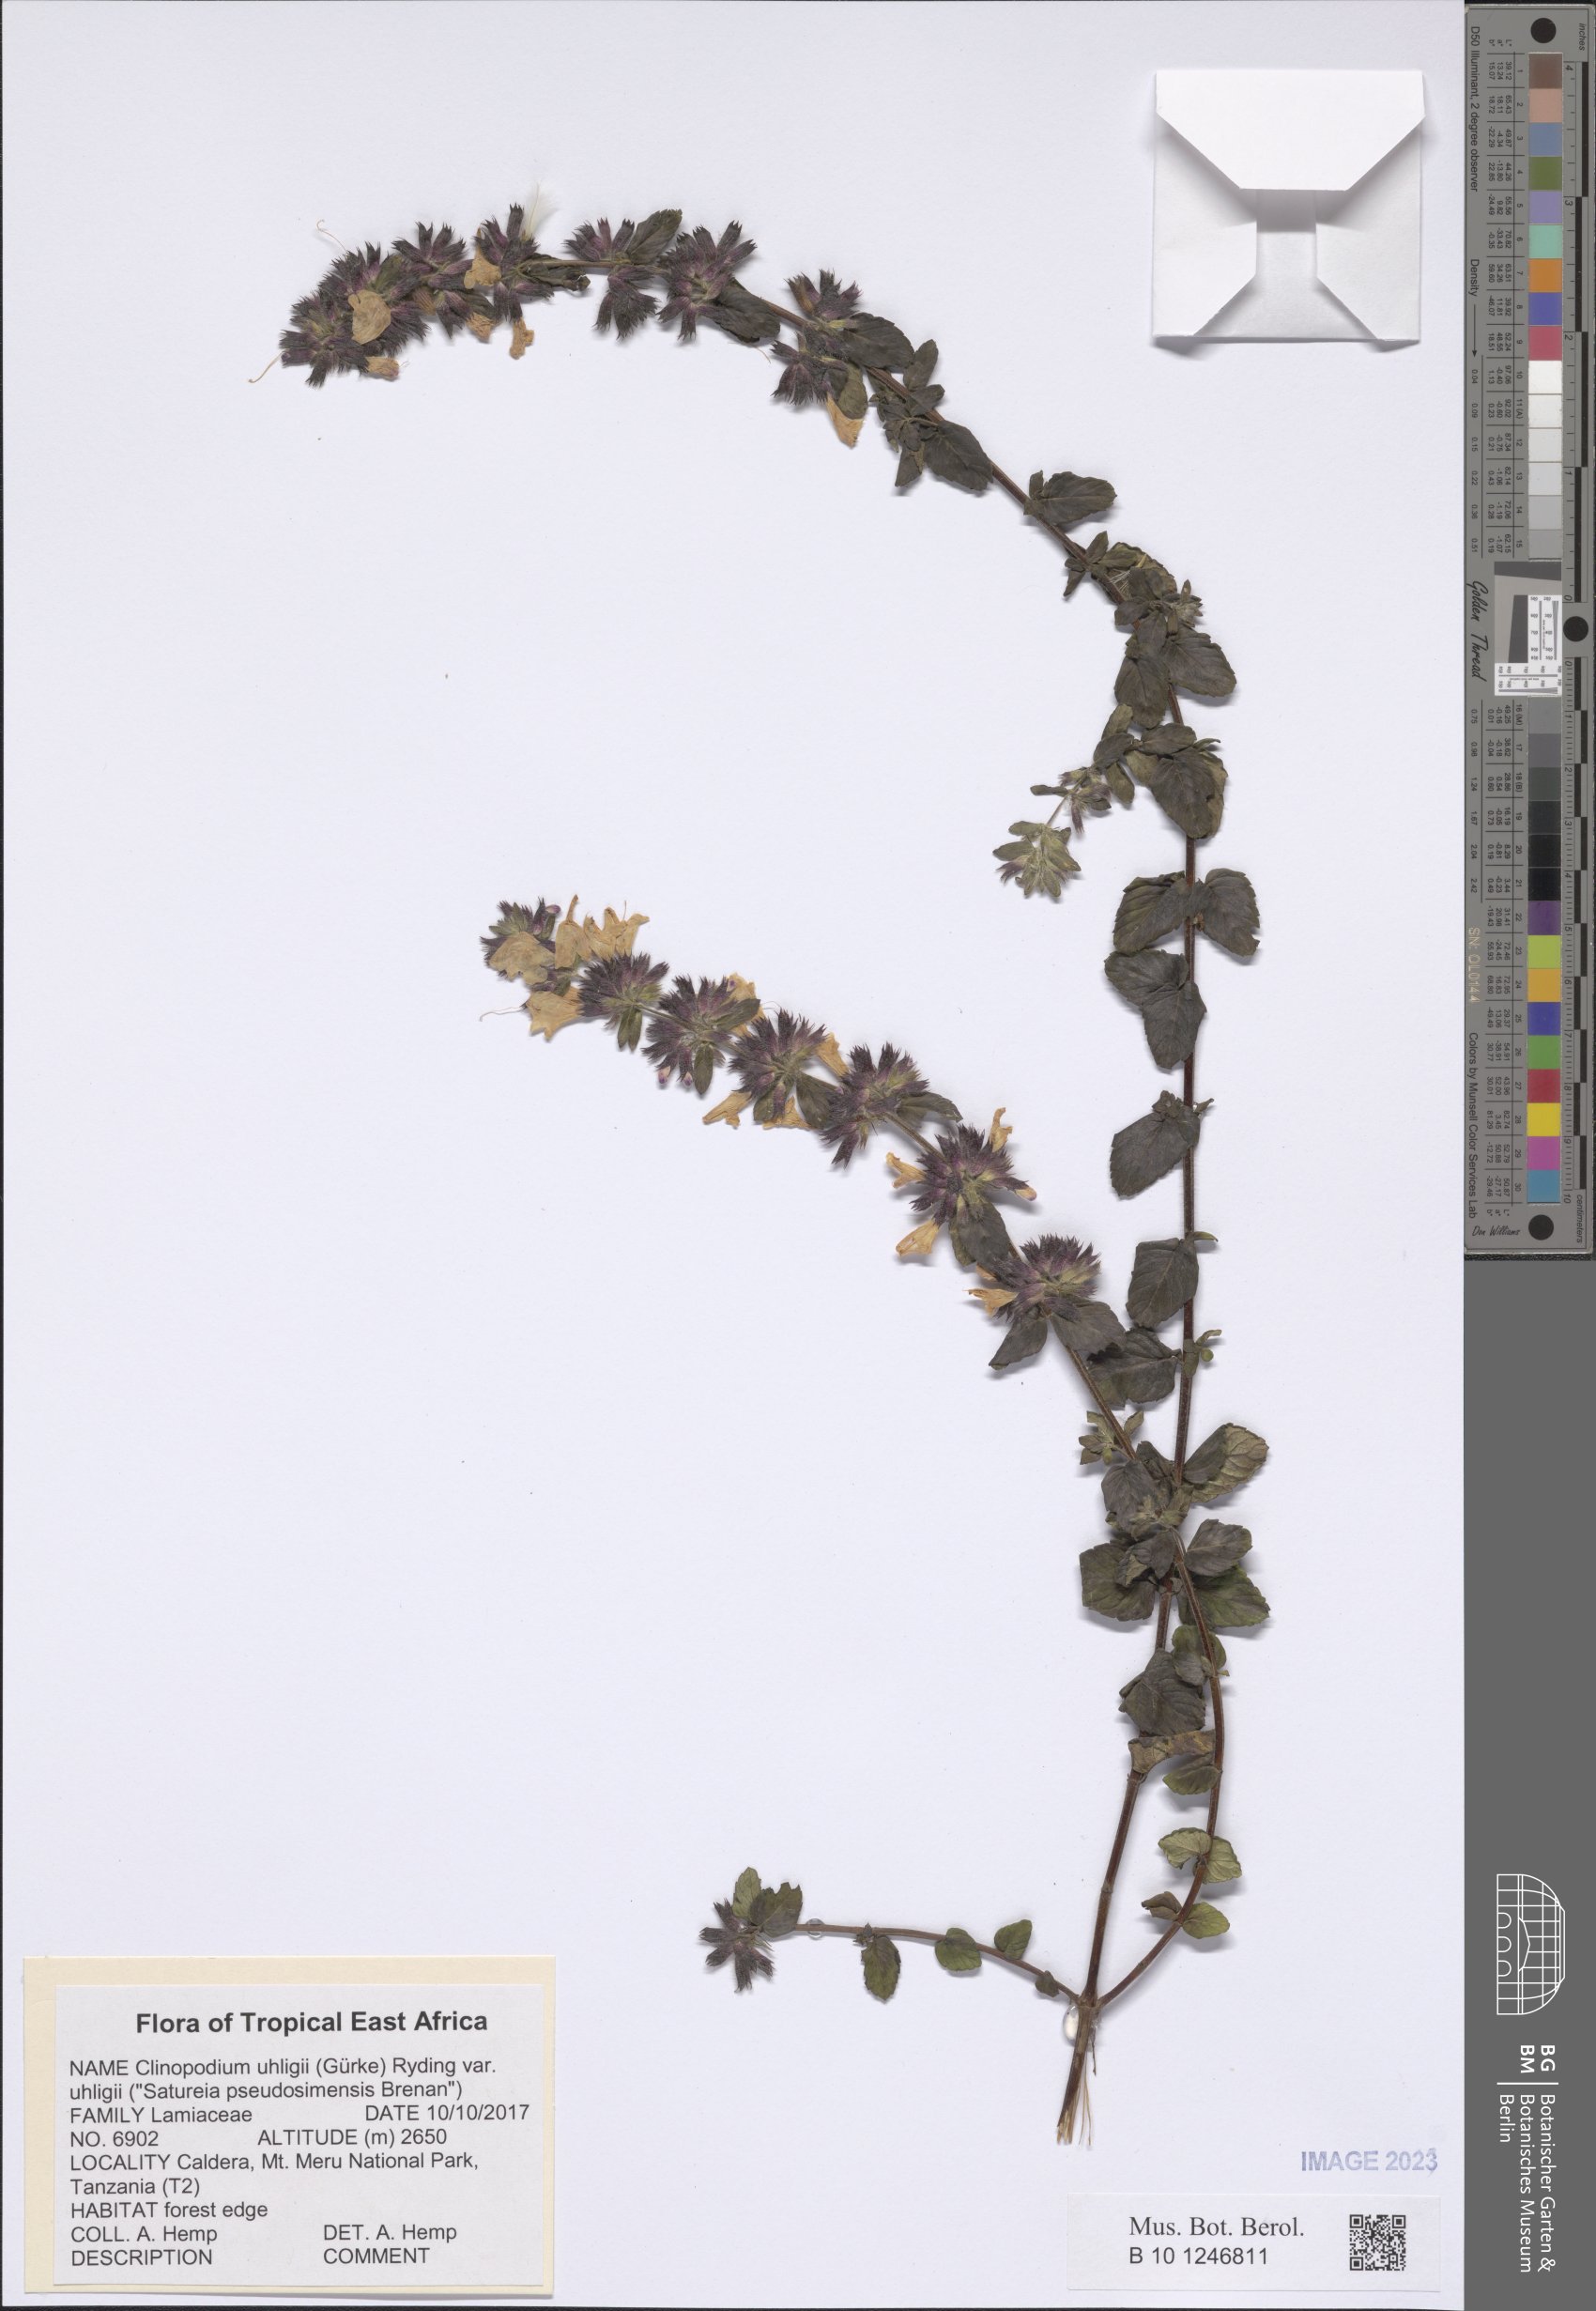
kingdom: Plantae
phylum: Tracheophyta
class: Magnoliopsida
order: Lamiales
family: Lamiaceae
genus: Clinopodium
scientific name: Clinopodium uhligii
